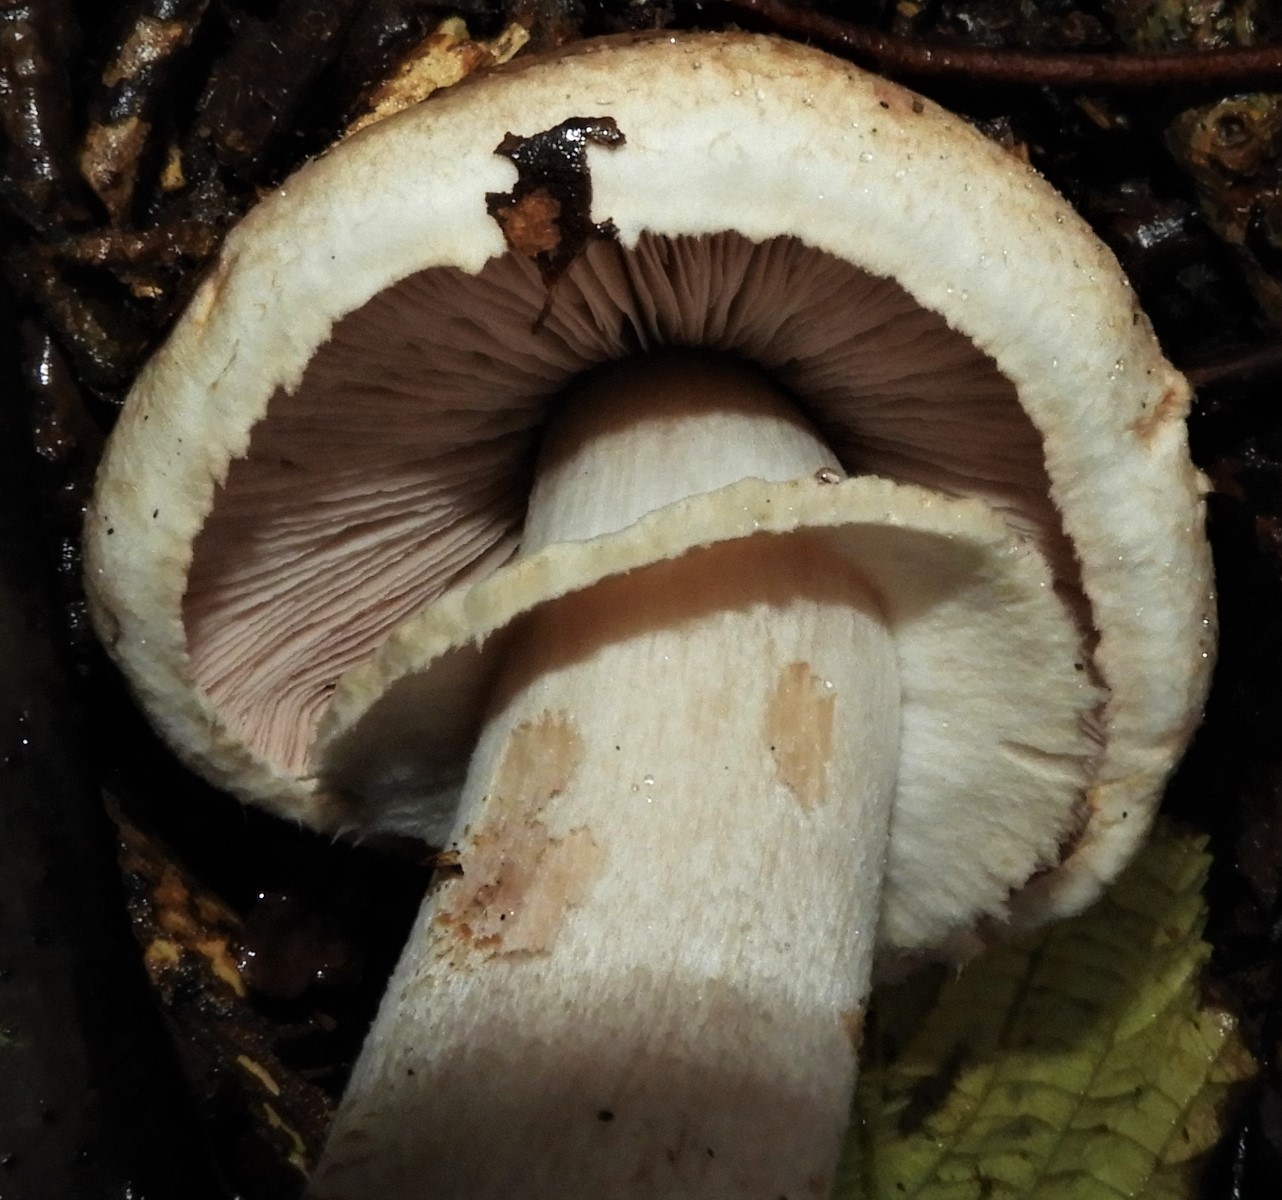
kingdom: Fungi
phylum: Basidiomycota
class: Agaricomycetes
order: Agaricales
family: Agaricaceae
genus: Agaricus
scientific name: Agaricus
